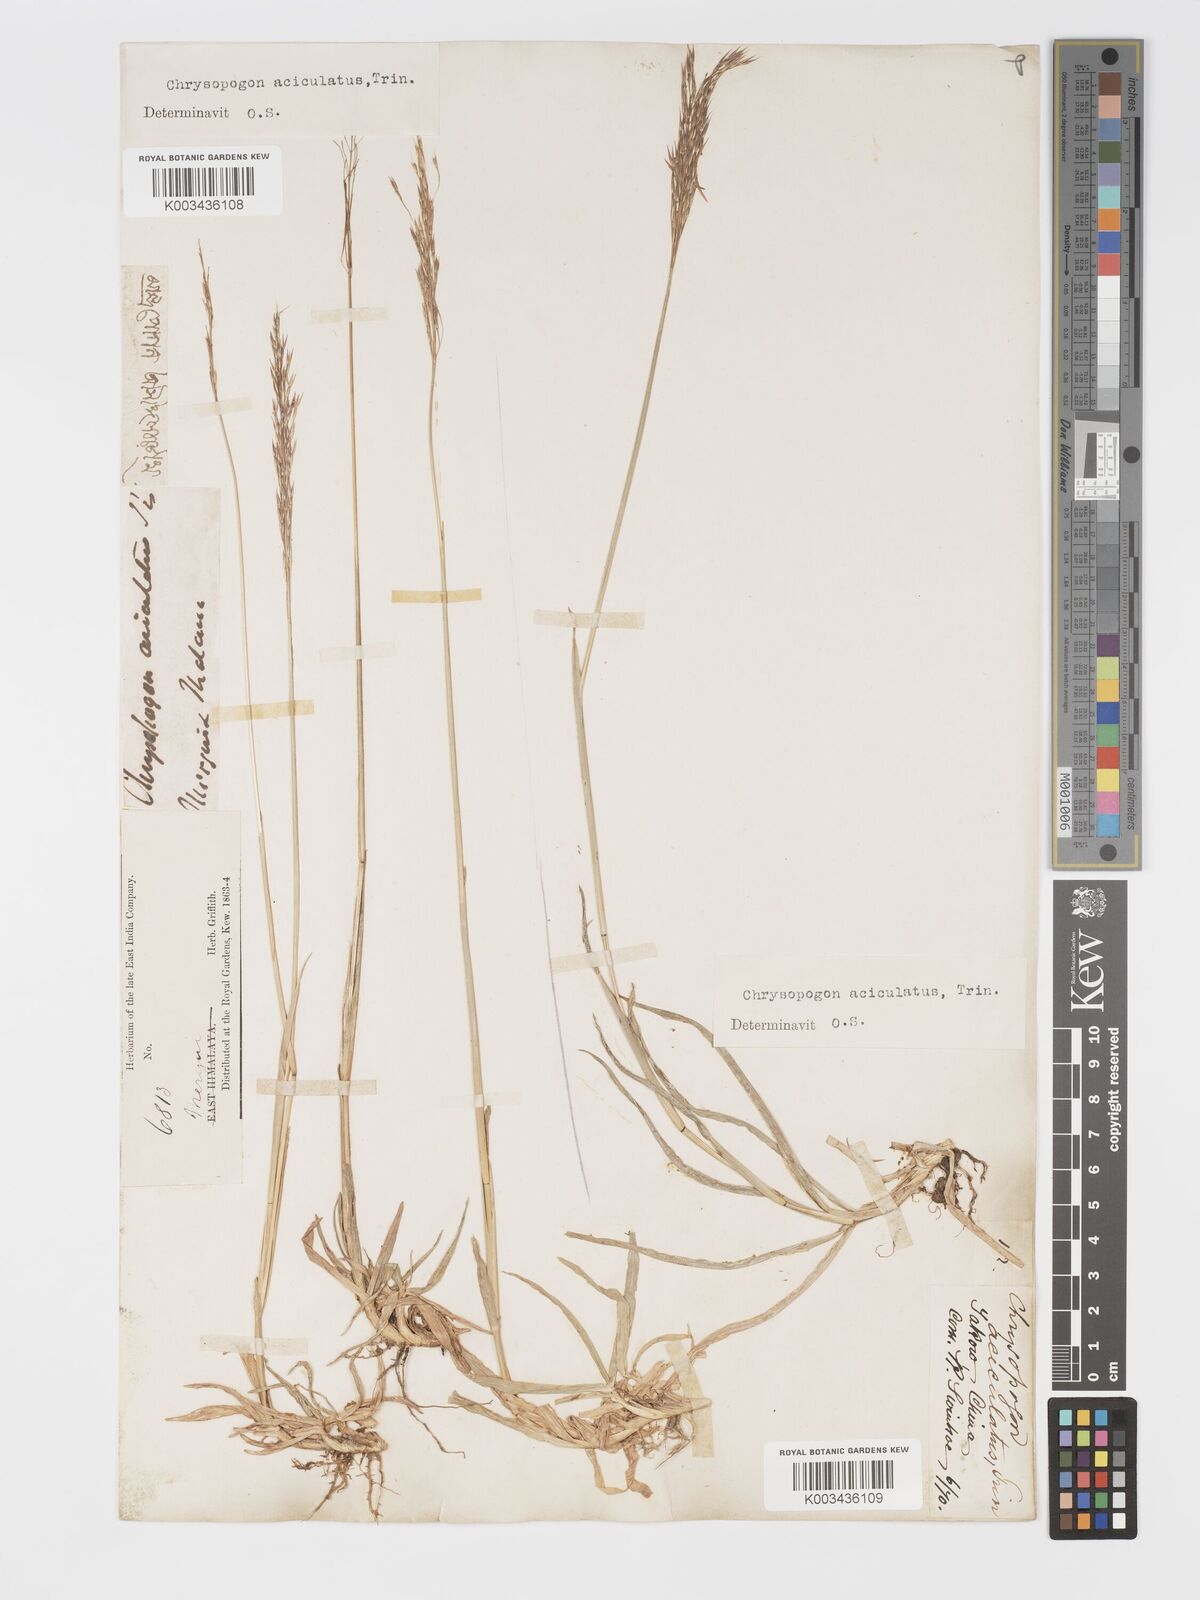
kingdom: Plantae
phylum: Tracheophyta
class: Liliopsida
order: Poales
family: Poaceae
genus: Chrysopogon
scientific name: Chrysopogon aciculatus
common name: Pilipiliula
